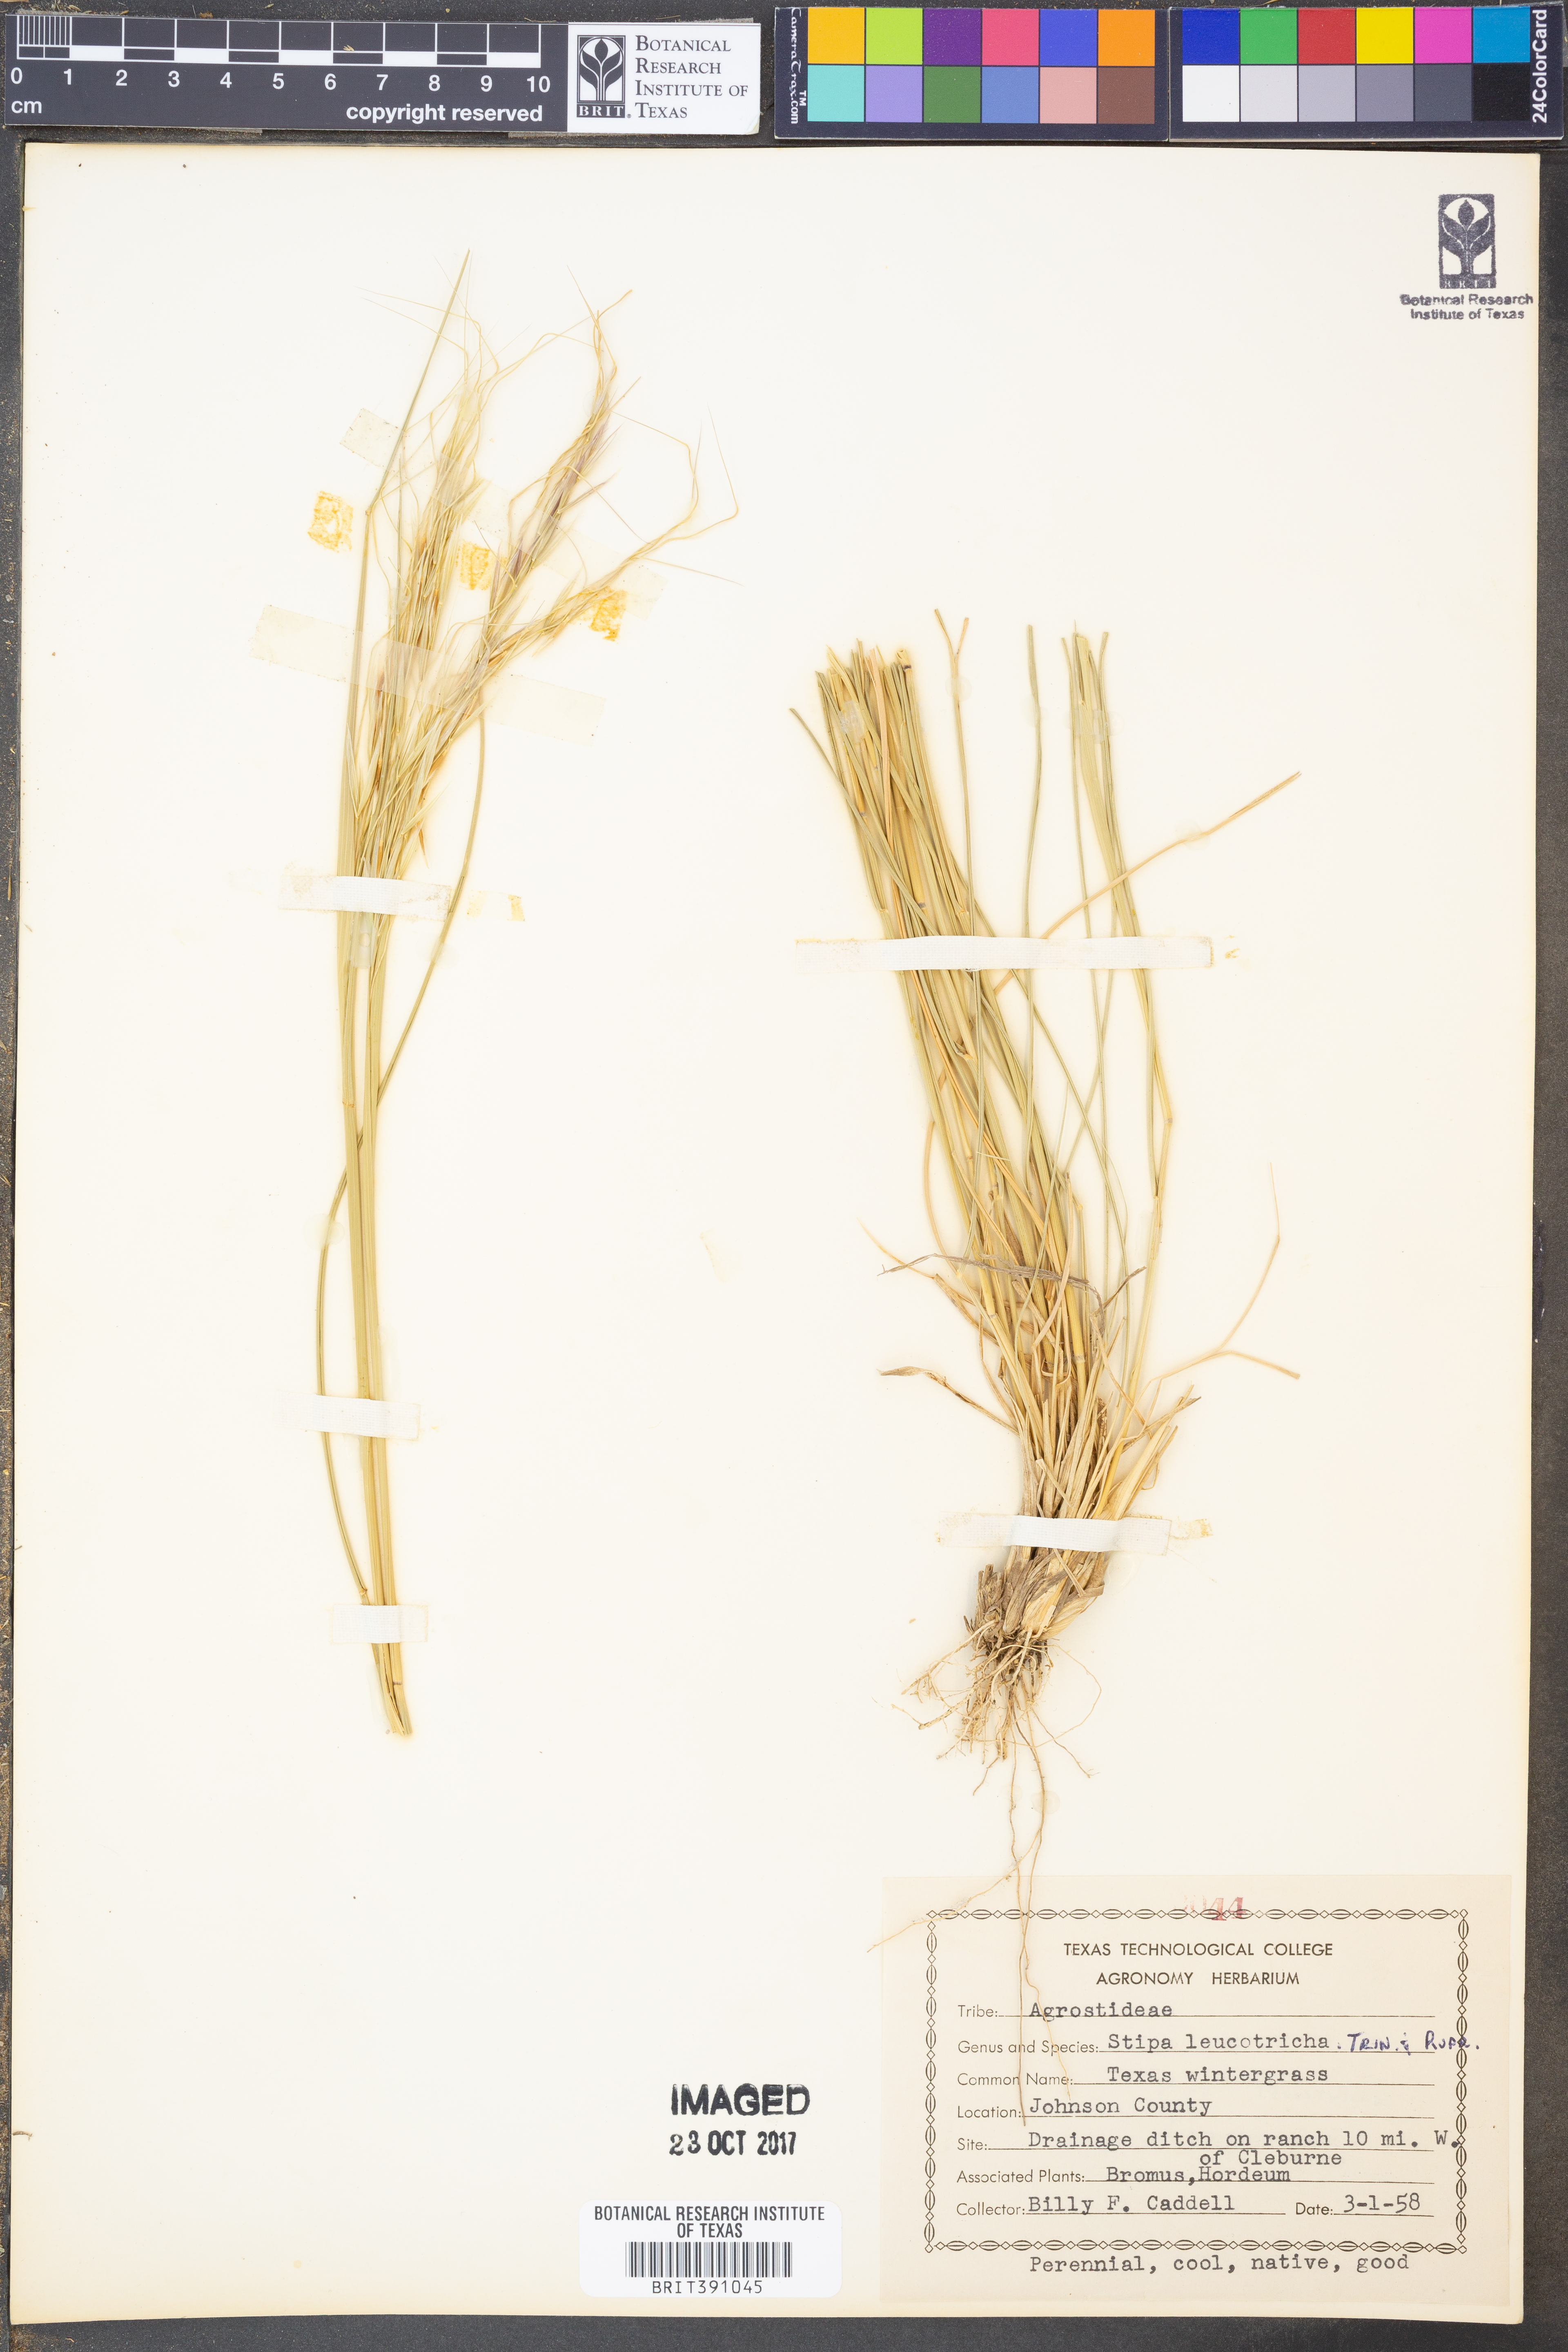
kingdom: Plantae
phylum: Tracheophyta
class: Liliopsida
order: Poales
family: Poaceae
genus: Nassella
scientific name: Nassella leucotricha
